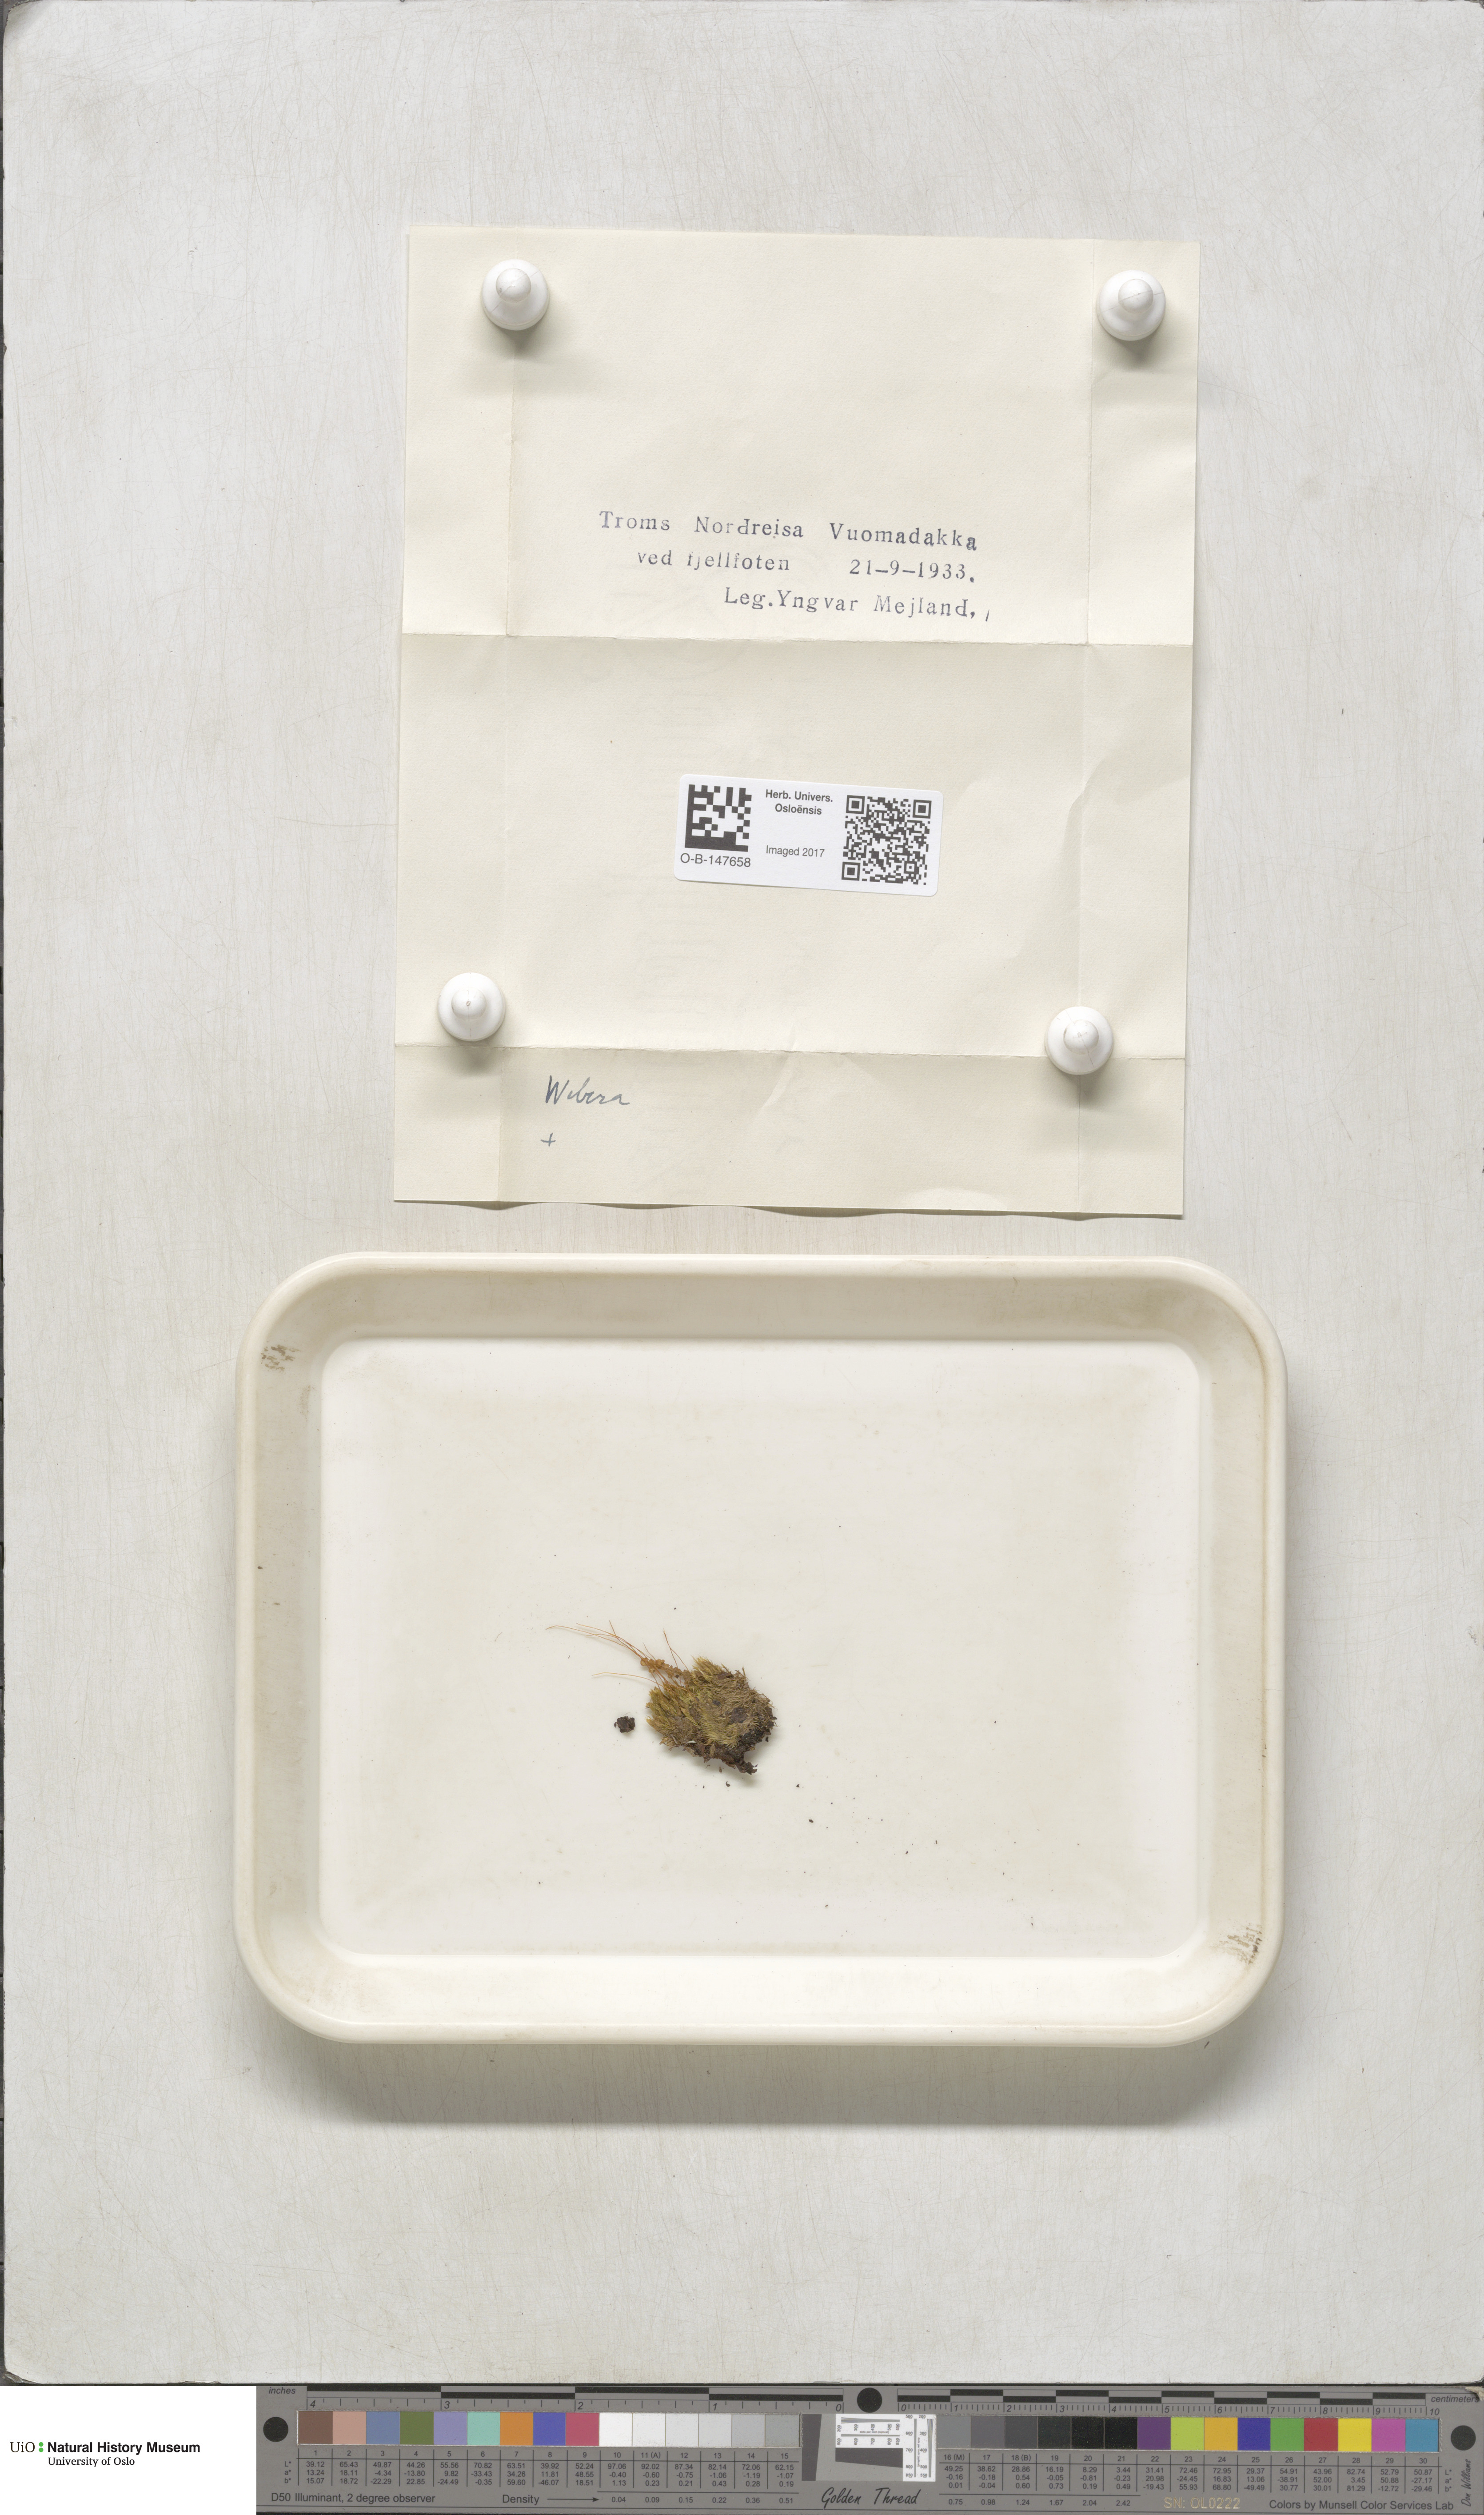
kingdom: Plantae
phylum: Bryophyta
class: Bryopsida
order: Bryales
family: Mniaceae
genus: Pohlia
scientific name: Pohlia
